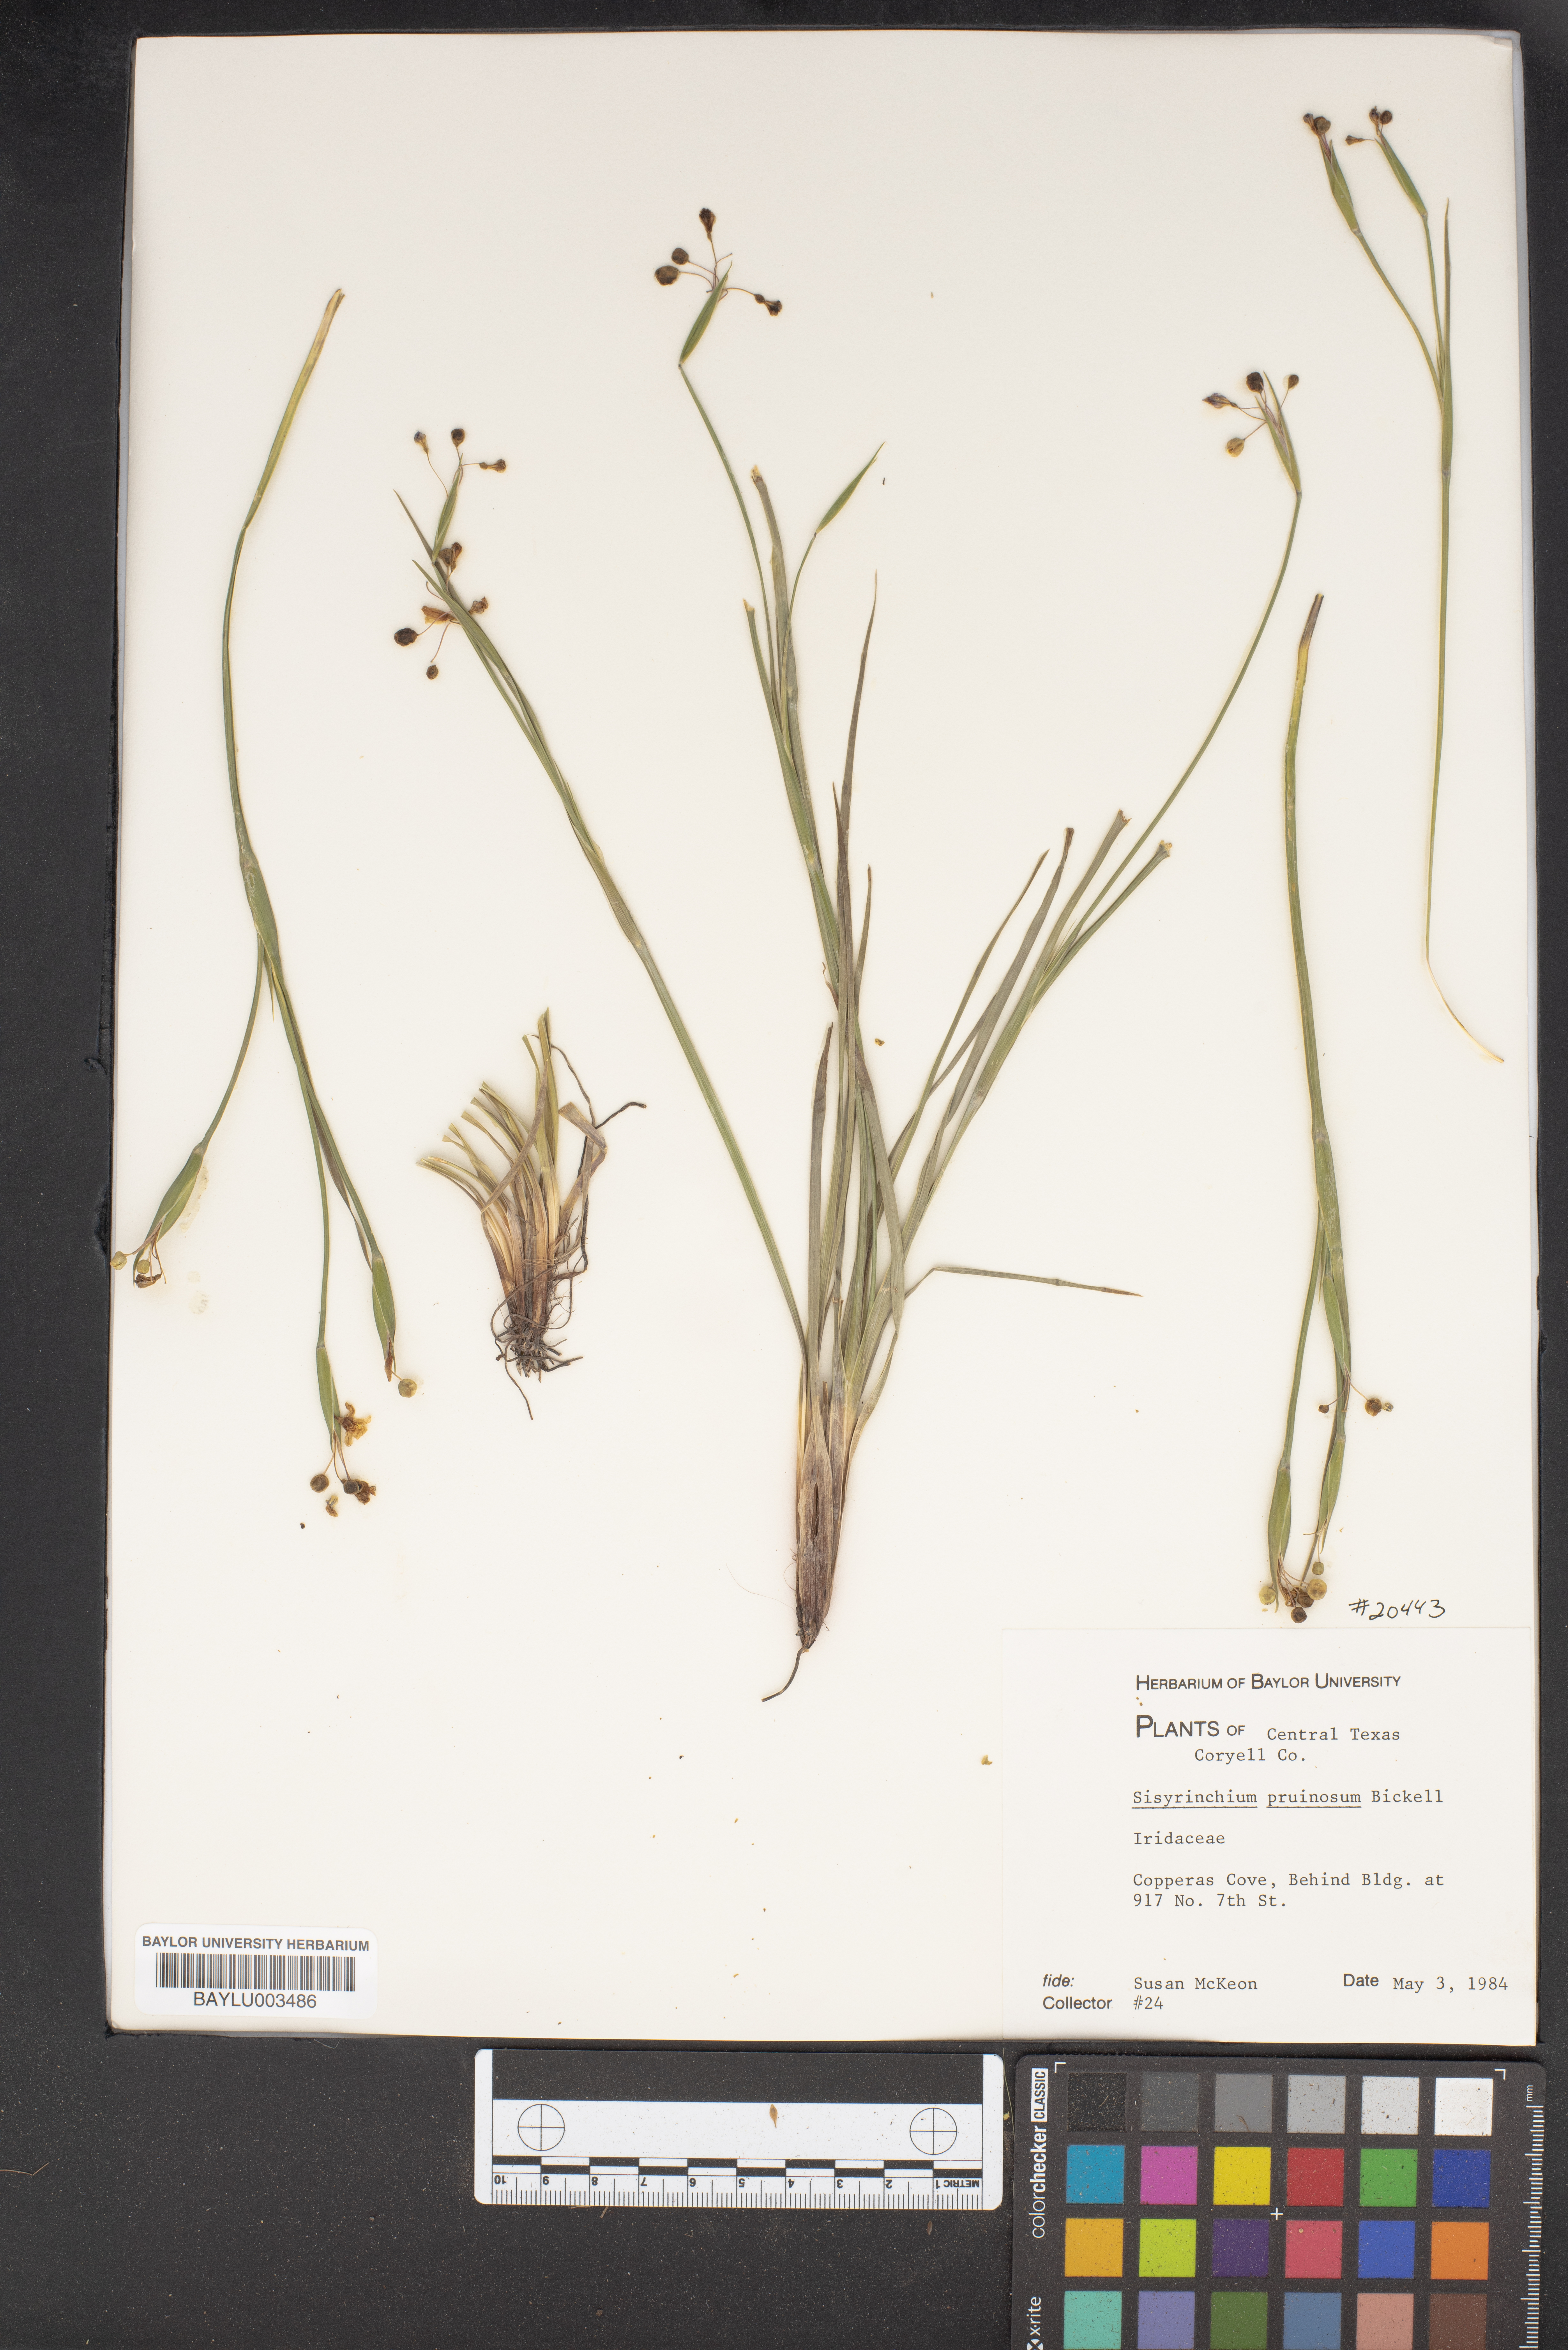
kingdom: Plantae
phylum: Tracheophyta
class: Liliopsida
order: Asparagales
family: Iridaceae
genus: Sisyrinchium
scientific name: Sisyrinchium pruinosum
